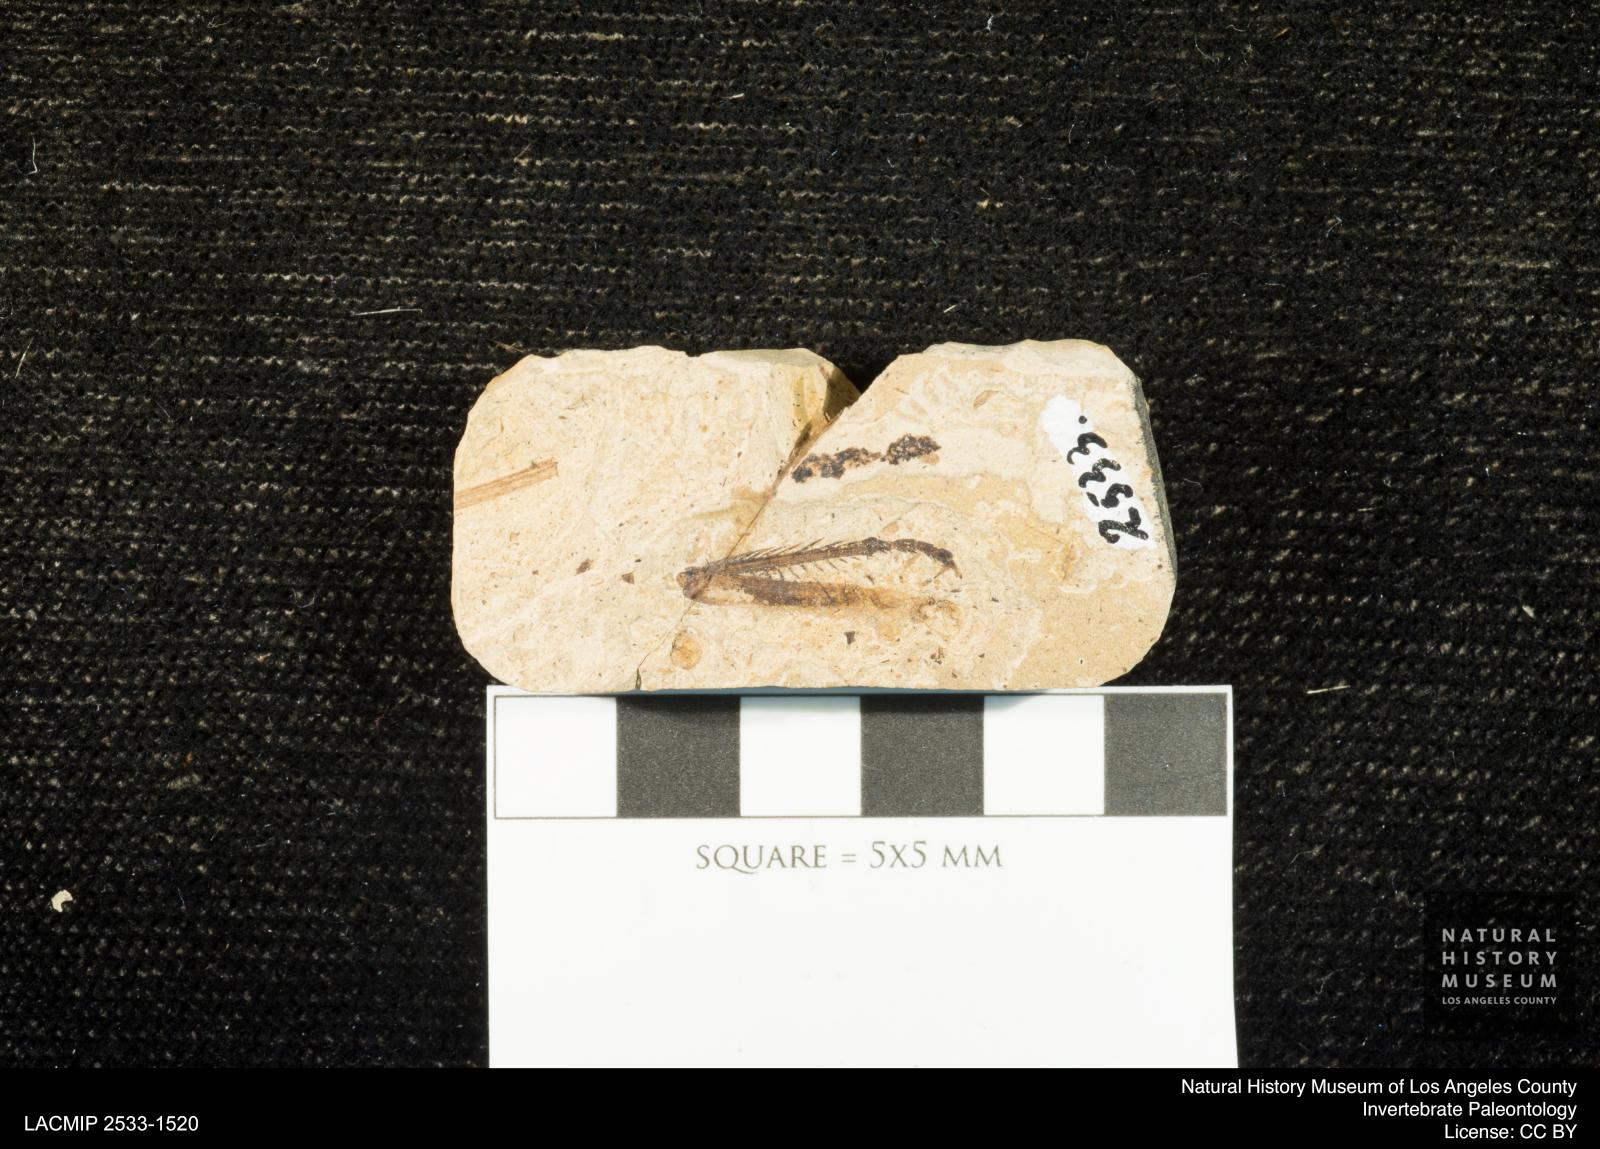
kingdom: Animalia
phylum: Arthropoda
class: Insecta
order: Odonata
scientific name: Odonata
